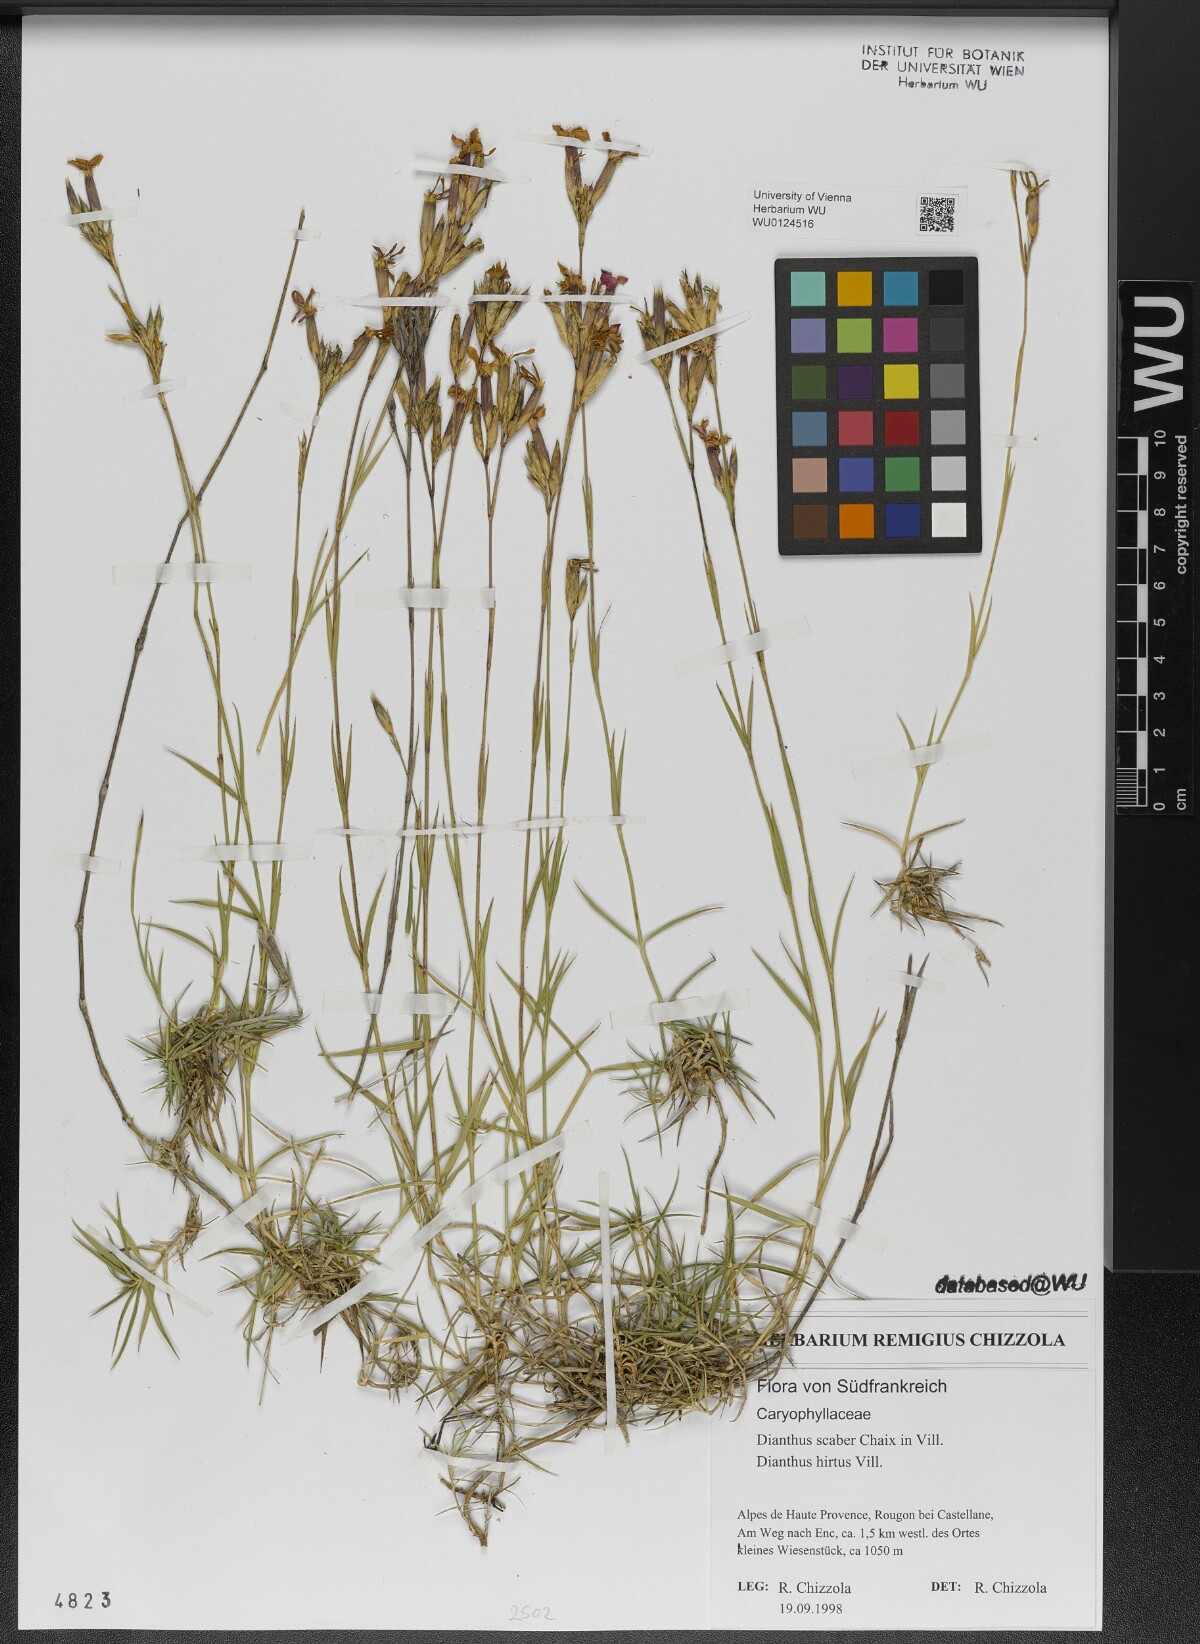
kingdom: Plantae
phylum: Tracheophyta
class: Magnoliopsida
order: Caryophyllales
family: Caryophyllaceae
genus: Dianthus
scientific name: Dianthus scaber
